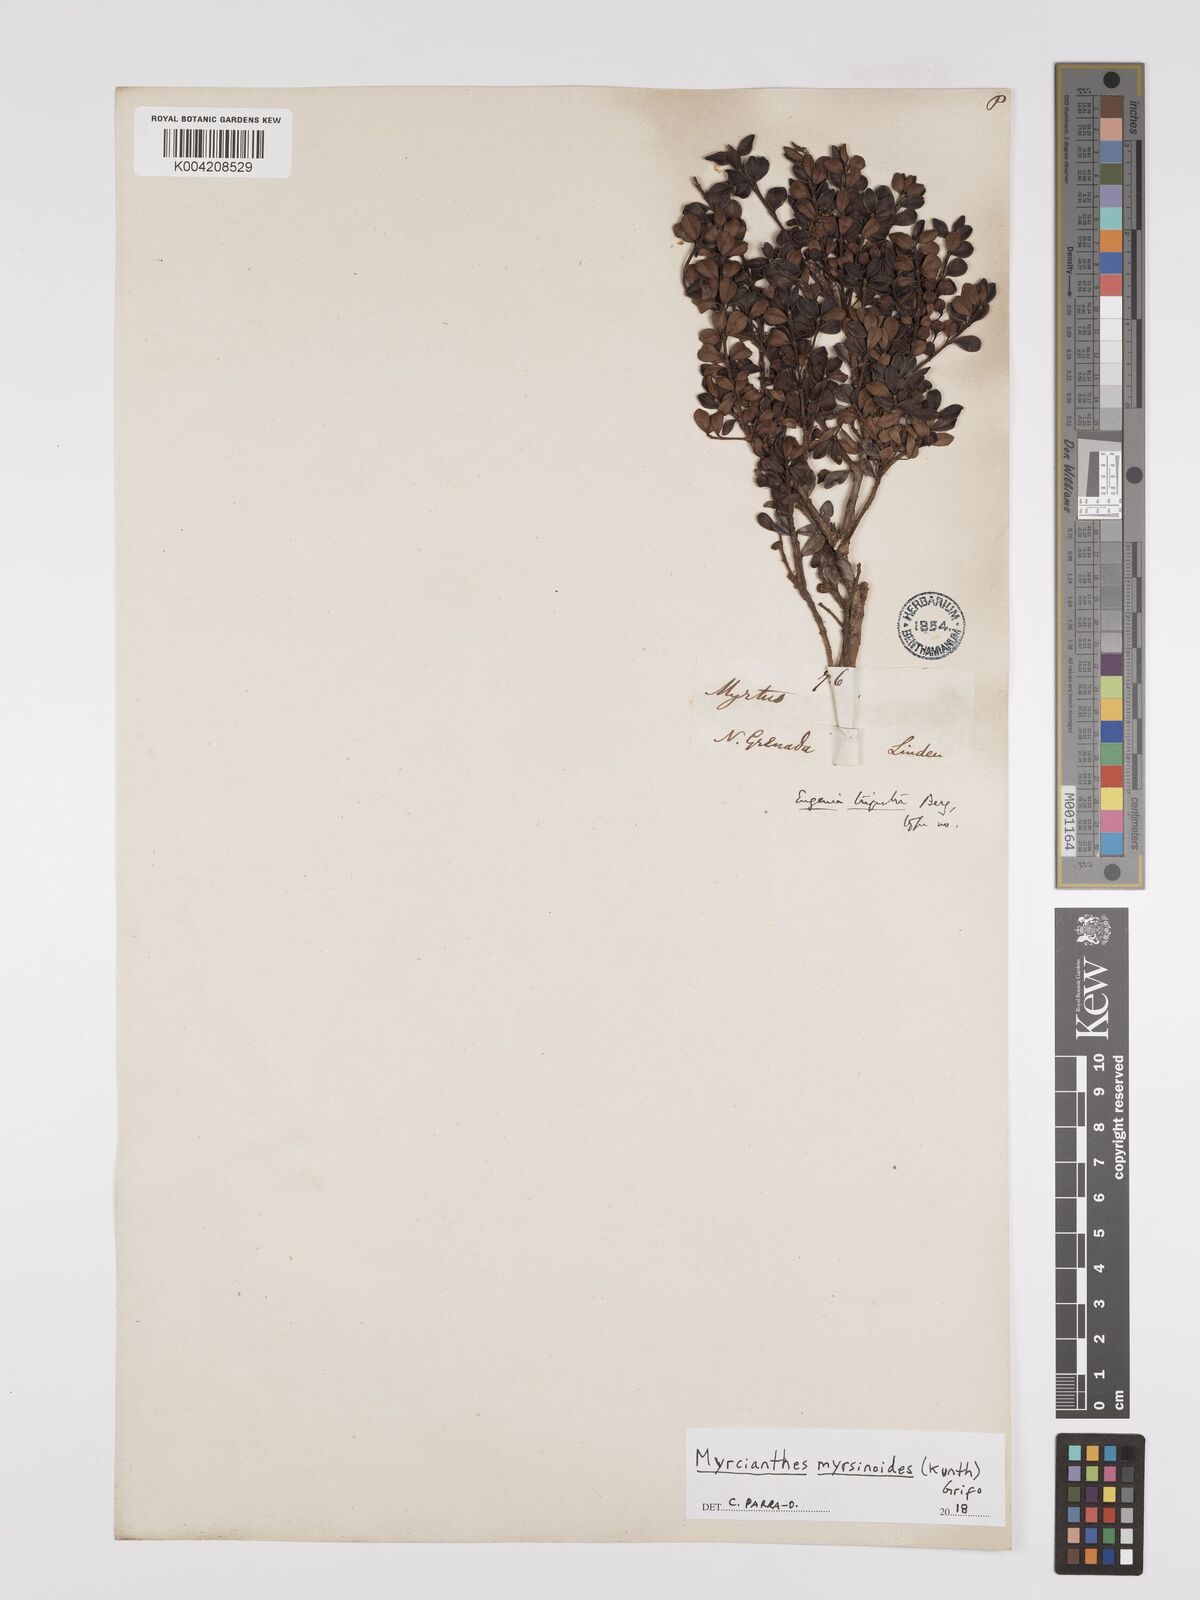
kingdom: Plantae
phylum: Tracheophyta
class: Magnoliopsida
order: Myrtales
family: Myrtaceae
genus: Myrcianthes
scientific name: Myrcianthes myrsinoides
